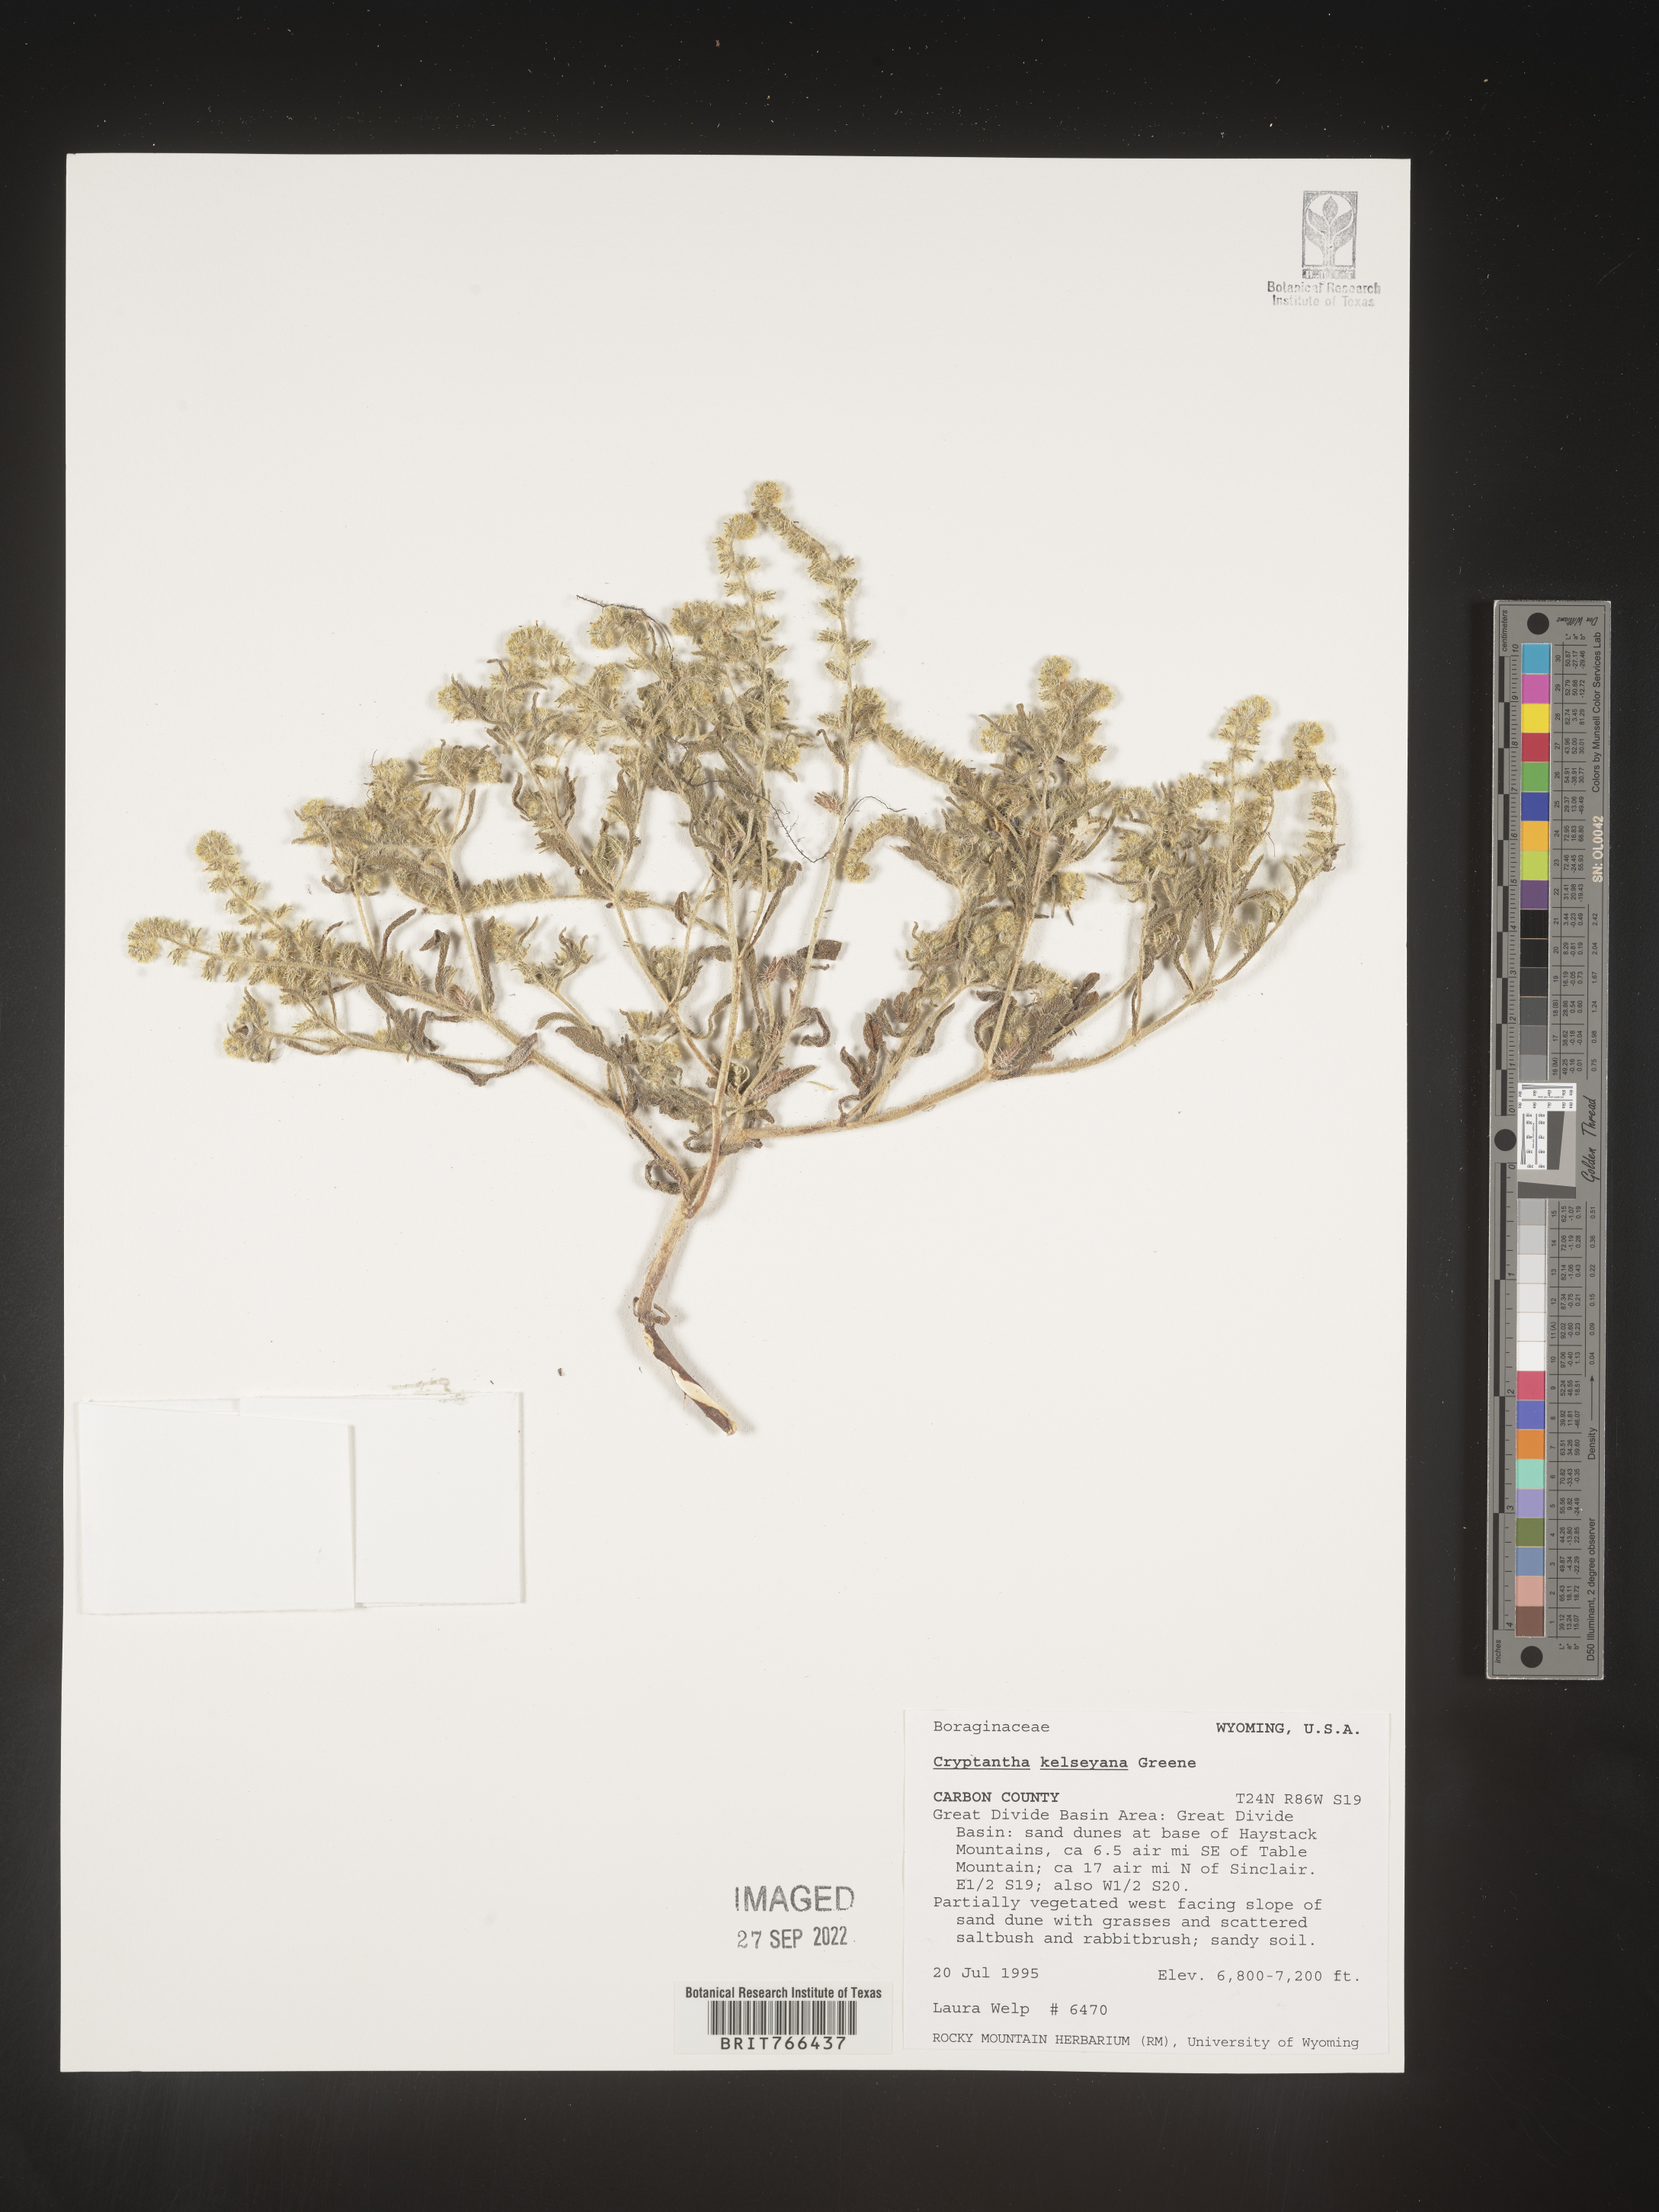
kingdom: Plantae
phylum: Tracheophyta
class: Magnoliopsida
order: Boraginales
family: Boraginaceae
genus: Cryptantha
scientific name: Cryptantha
